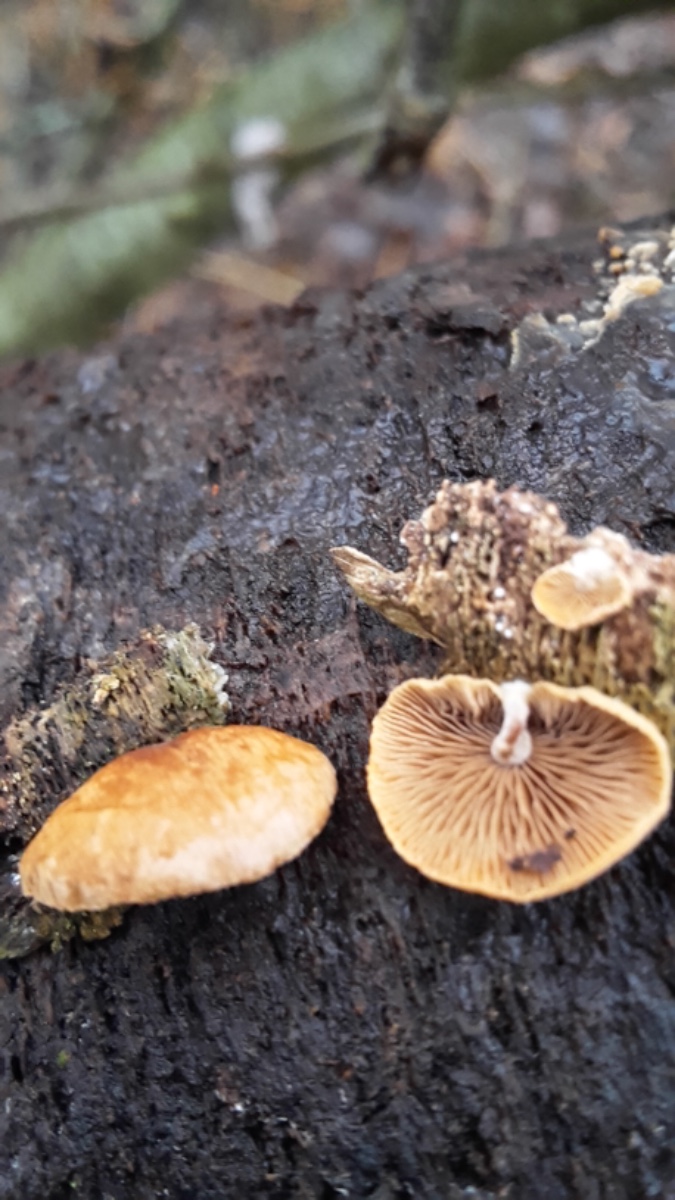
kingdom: Fungi
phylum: Basidiomycota
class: Agaricomycetes
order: Agaricales
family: Strophariaceae
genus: Deconica
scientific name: Deconica horizontalis
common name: ved-stråhat
